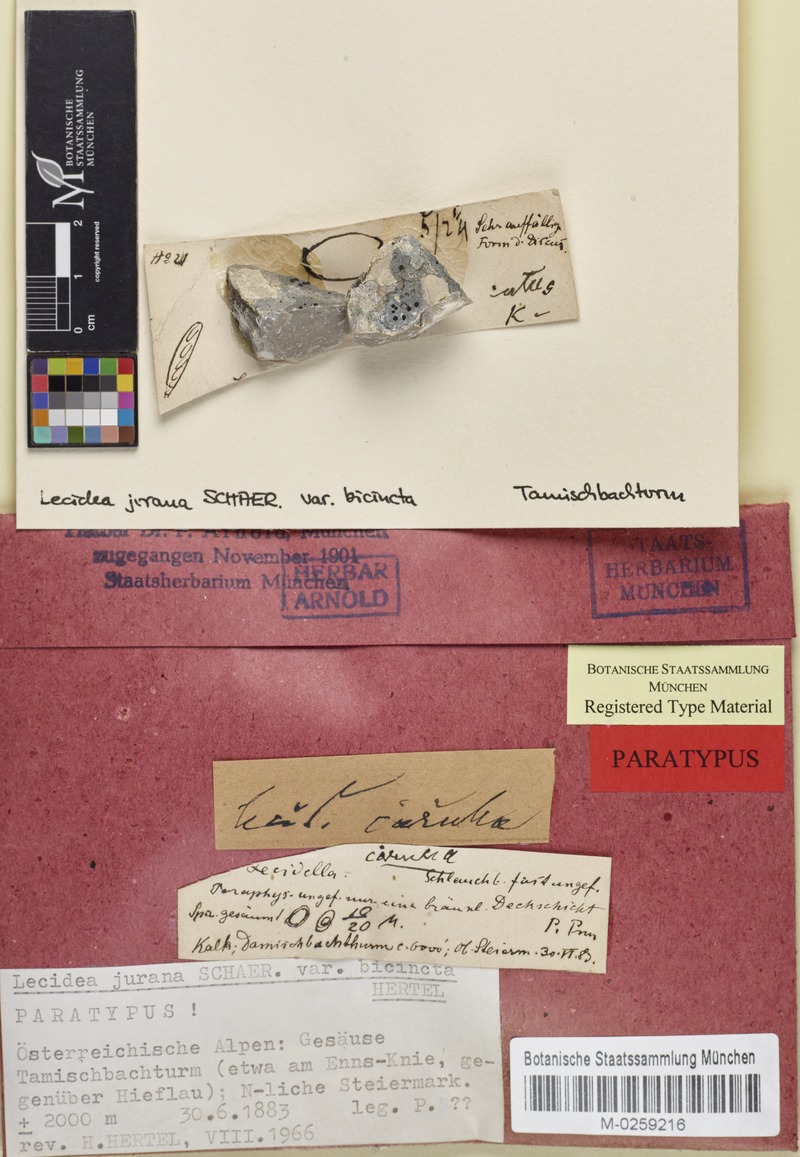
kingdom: Fungi
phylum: Ascomycota
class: Lecanoromycetes
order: Lecideales
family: Lecideaceae
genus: Farnoldia
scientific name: Farnoldia jurana
